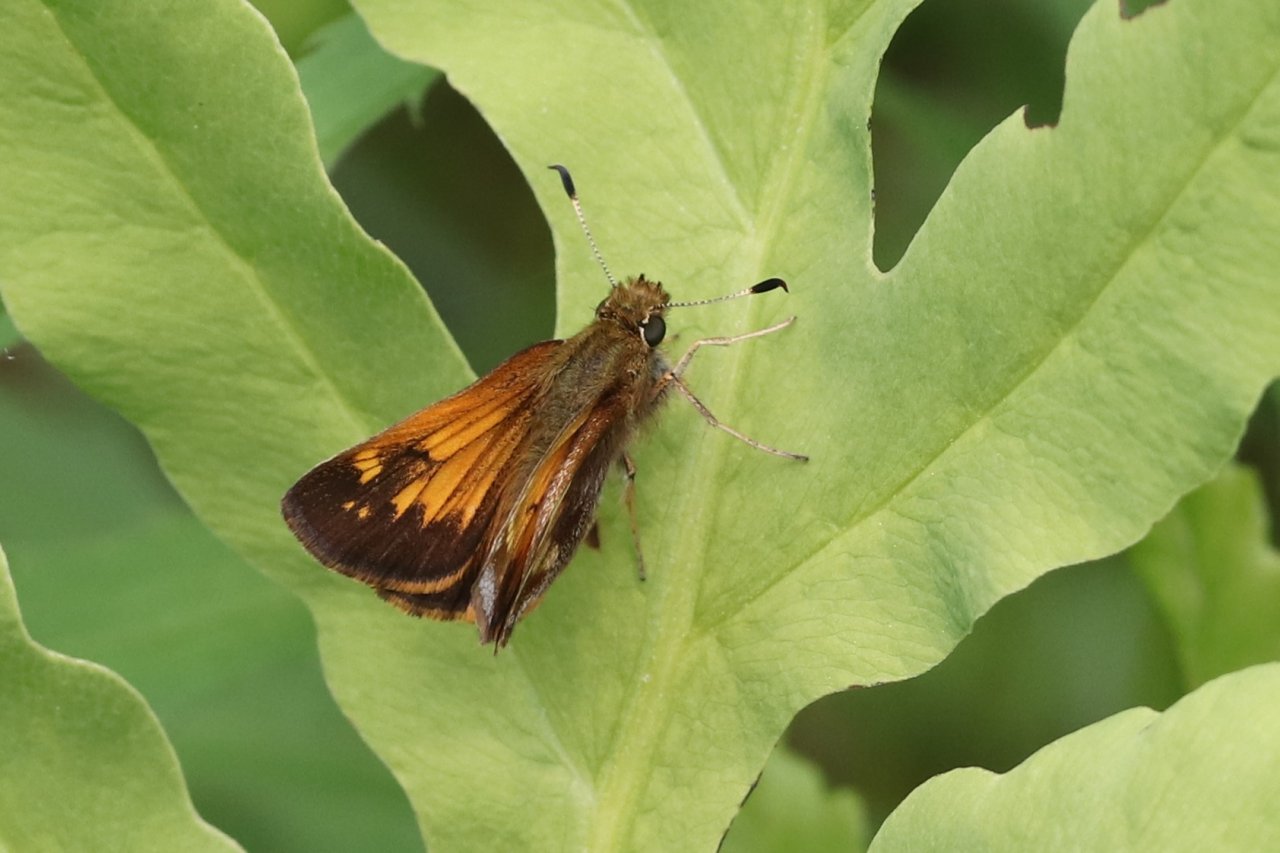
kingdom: Animalia
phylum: Arthropoda
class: Insecta
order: Lepidoptera
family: Hesperiidae
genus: Lon
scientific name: Lon hobomok
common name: Hobomok Skipper
